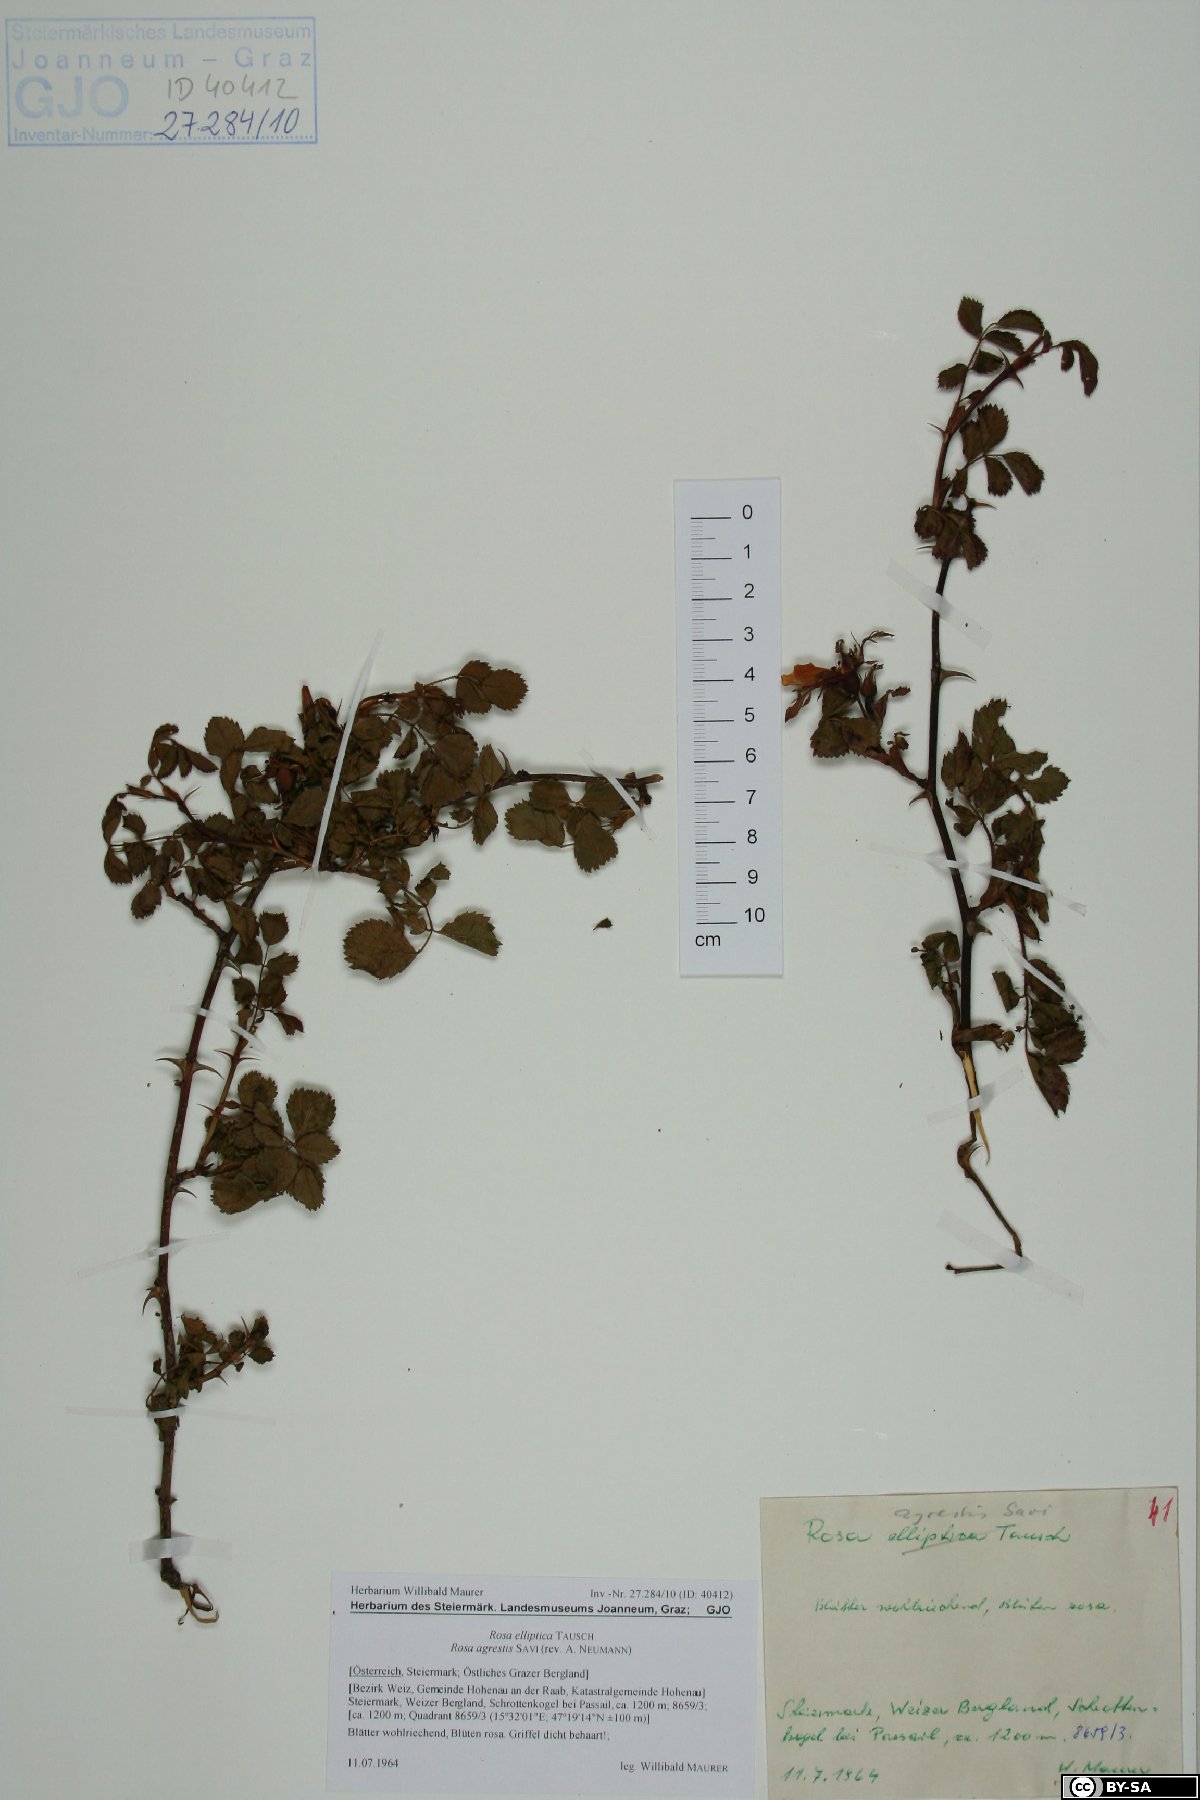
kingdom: Plantae
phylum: Tracheophyta
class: Magnoliopsida
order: Rosales
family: Rosaceae
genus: Rosa
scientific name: Rosa agrestis
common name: Fieldbriar
